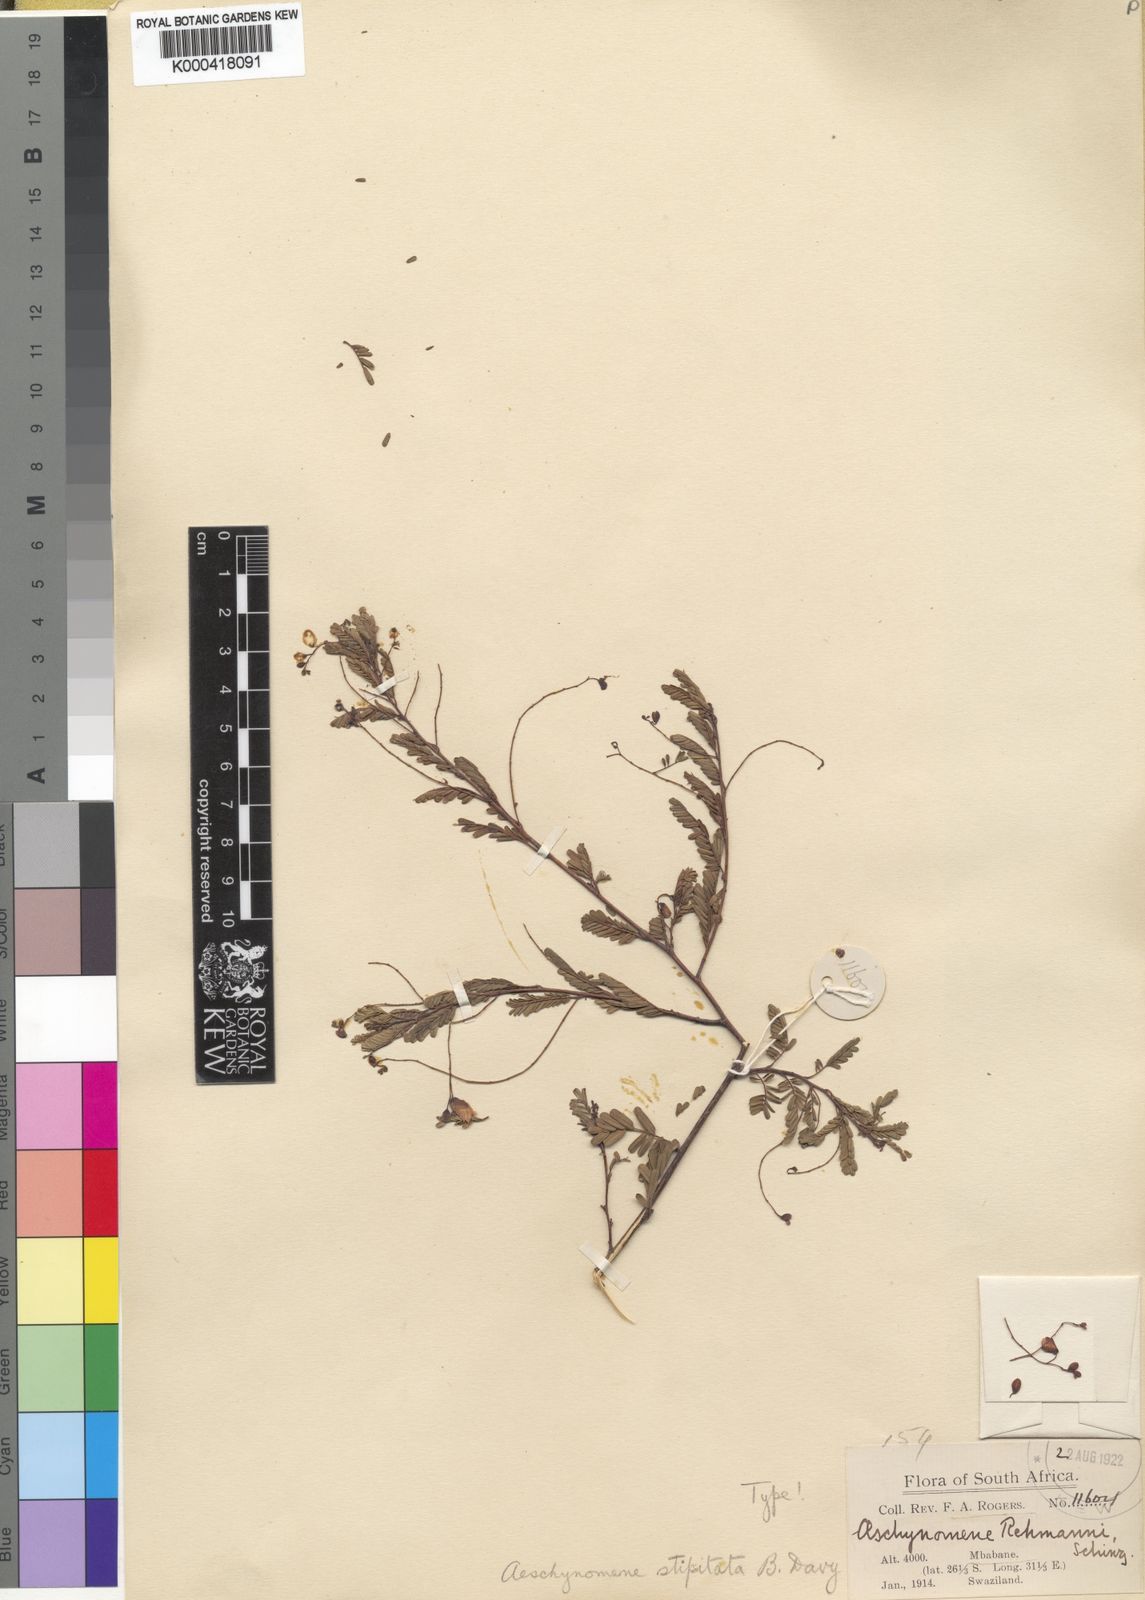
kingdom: Plantae
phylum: Tracheophyta
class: Magnoliopsida
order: Fabales
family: Fabaceae
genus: Aeschynomene
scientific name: Aeschynomene stipitata
